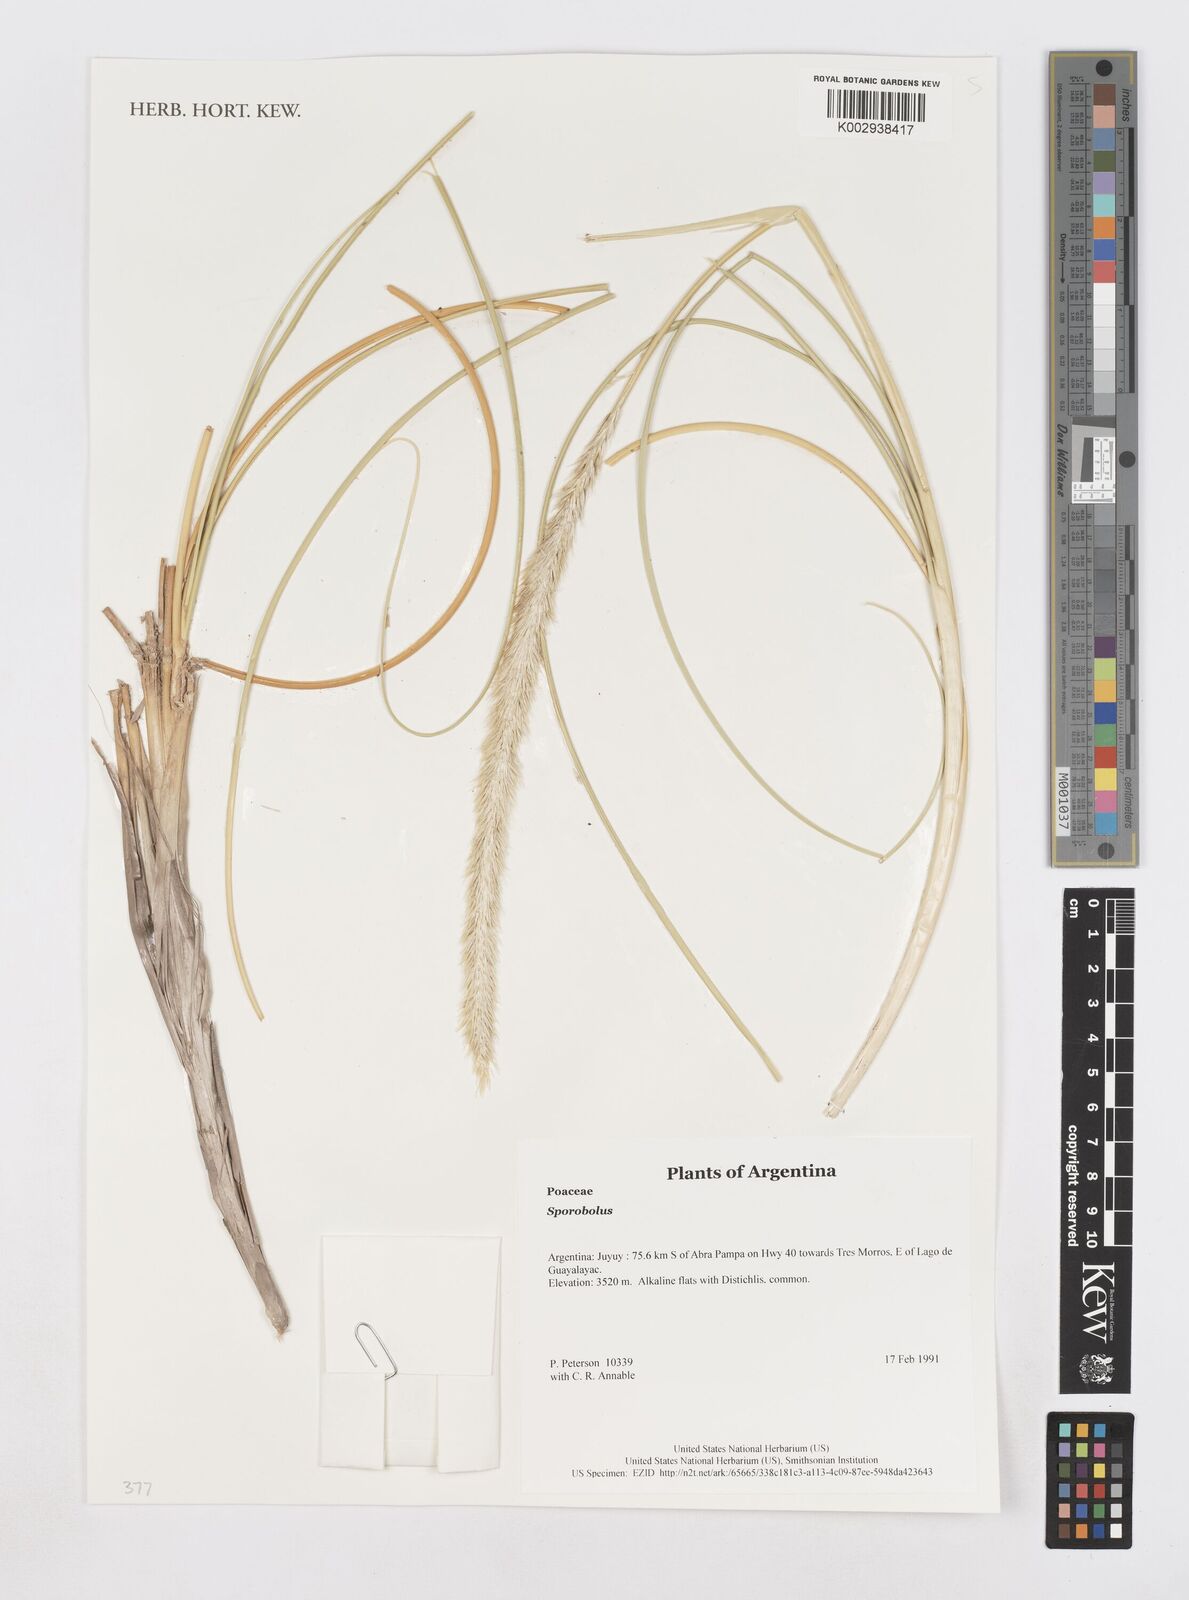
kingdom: Plantae
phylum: Tracheophyta
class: Liliopsida
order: Poales
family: Poaceae
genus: Sporobolus
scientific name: Sporobolus
